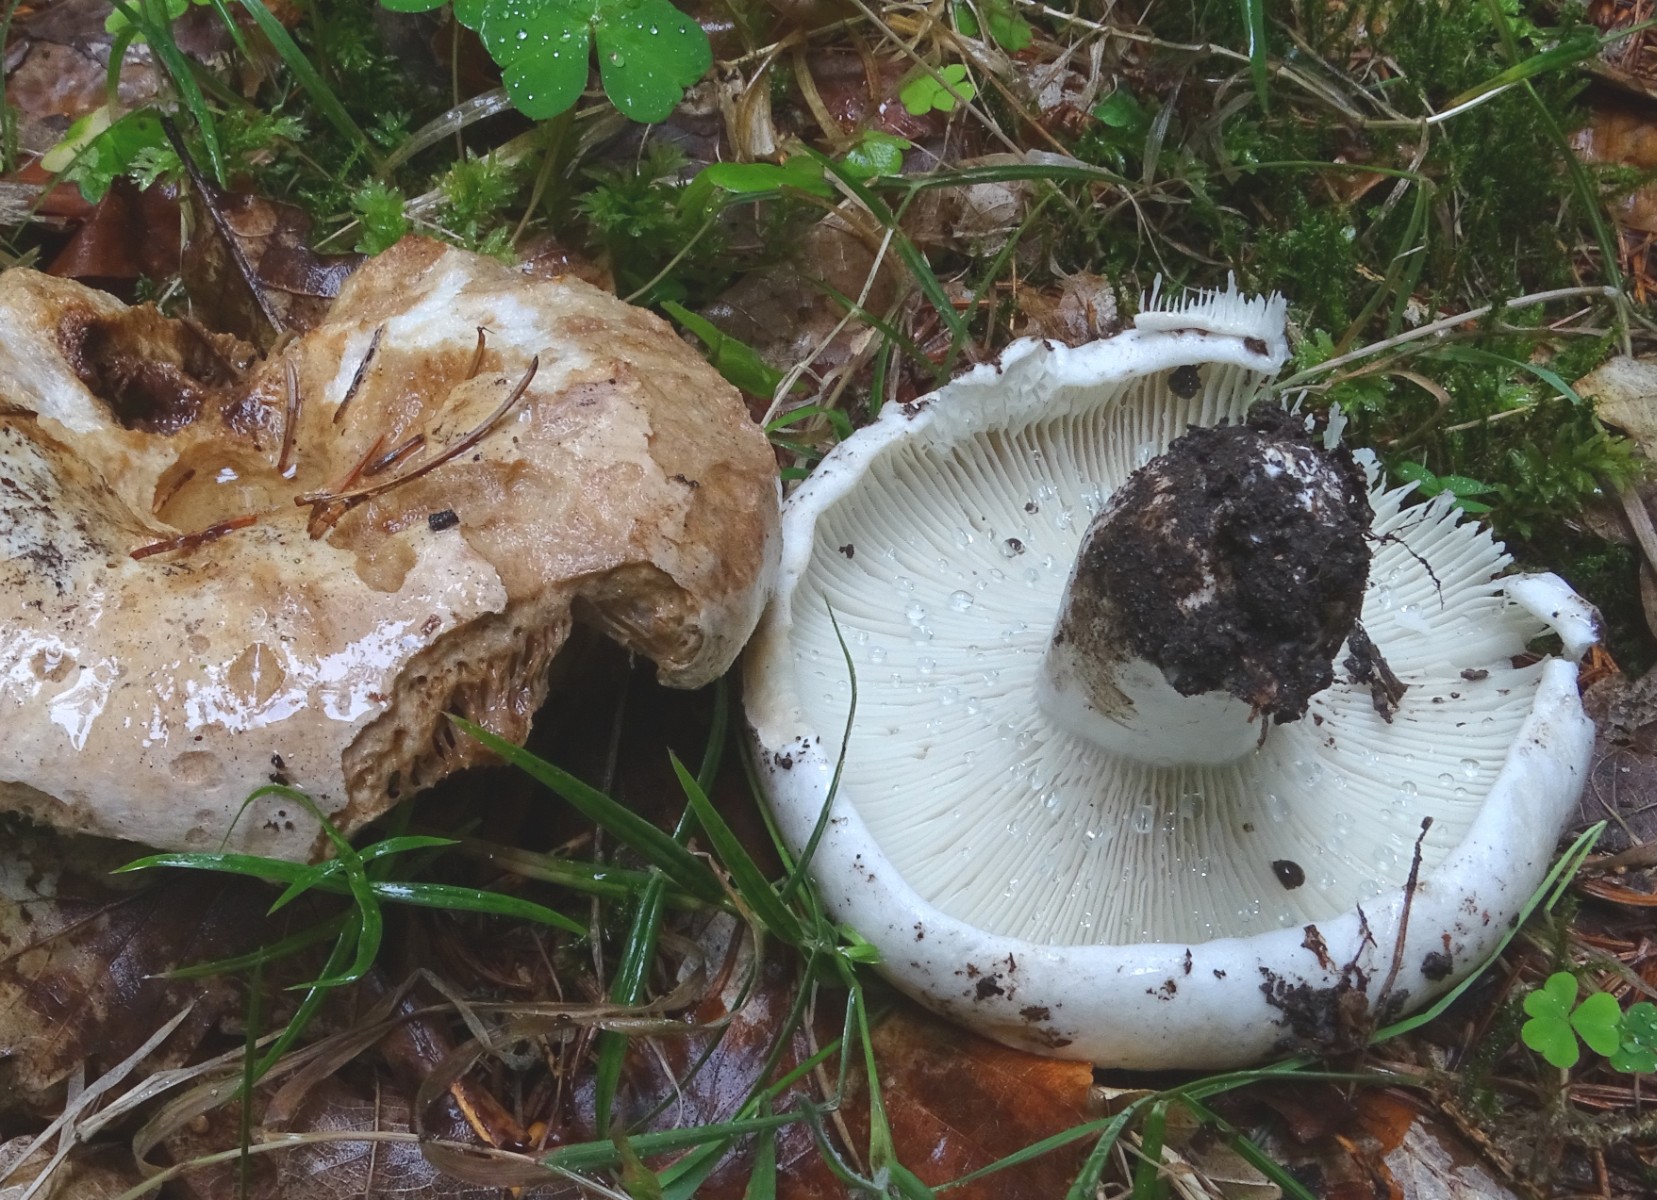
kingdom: Fungi
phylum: Basidiomycota
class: Agaricomycetes
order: Russulales
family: Russulaceae
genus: Russula
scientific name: Russula chloroides
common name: grønhalset tragt-skørhat
